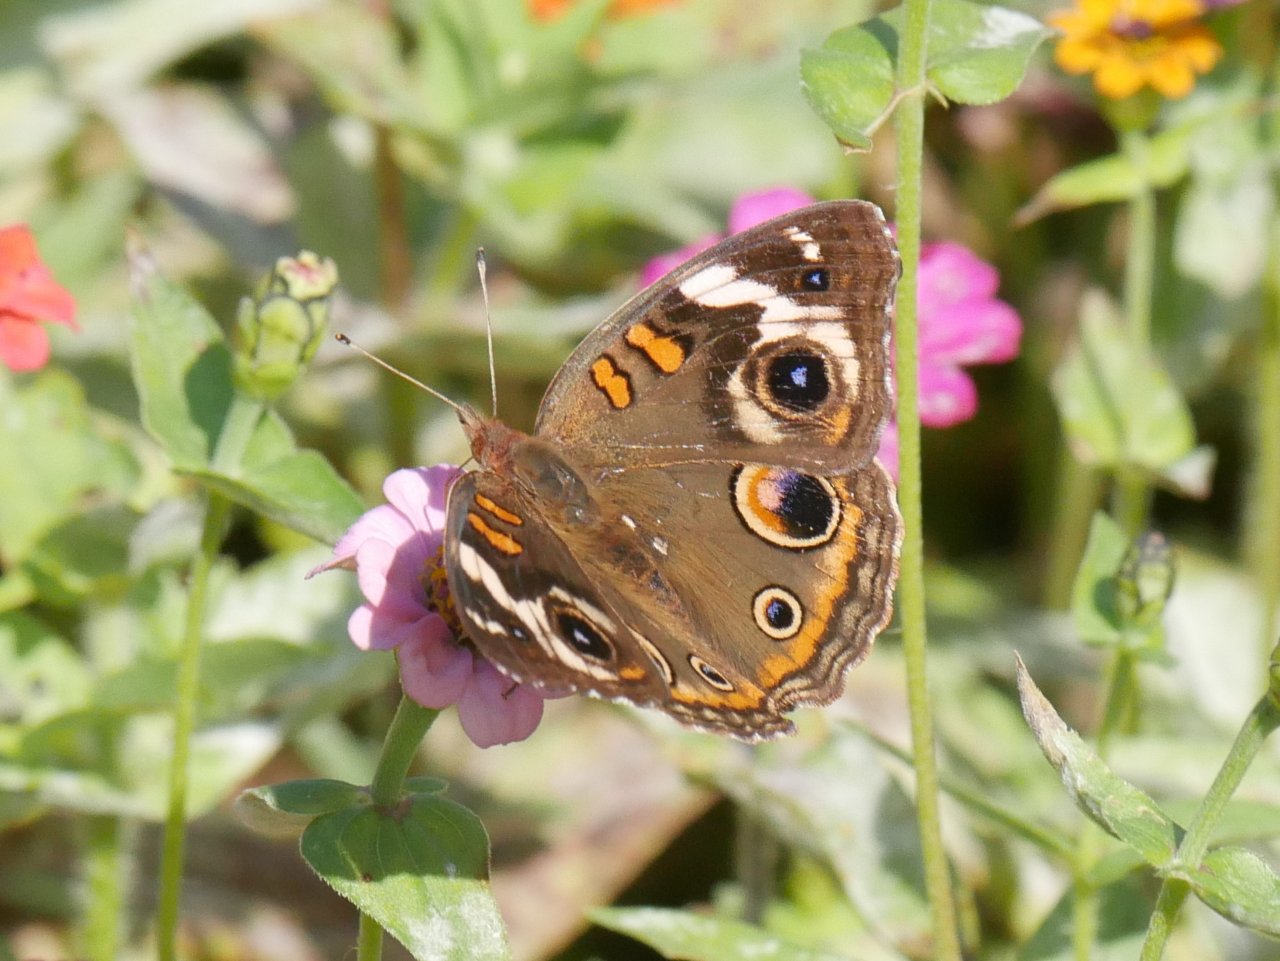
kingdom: Animalia
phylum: Arthropoda
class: Insecta
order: Lepidoptera
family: Nymphalidae
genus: Junonia
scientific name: Junonia coenia
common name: Common Buckeye
